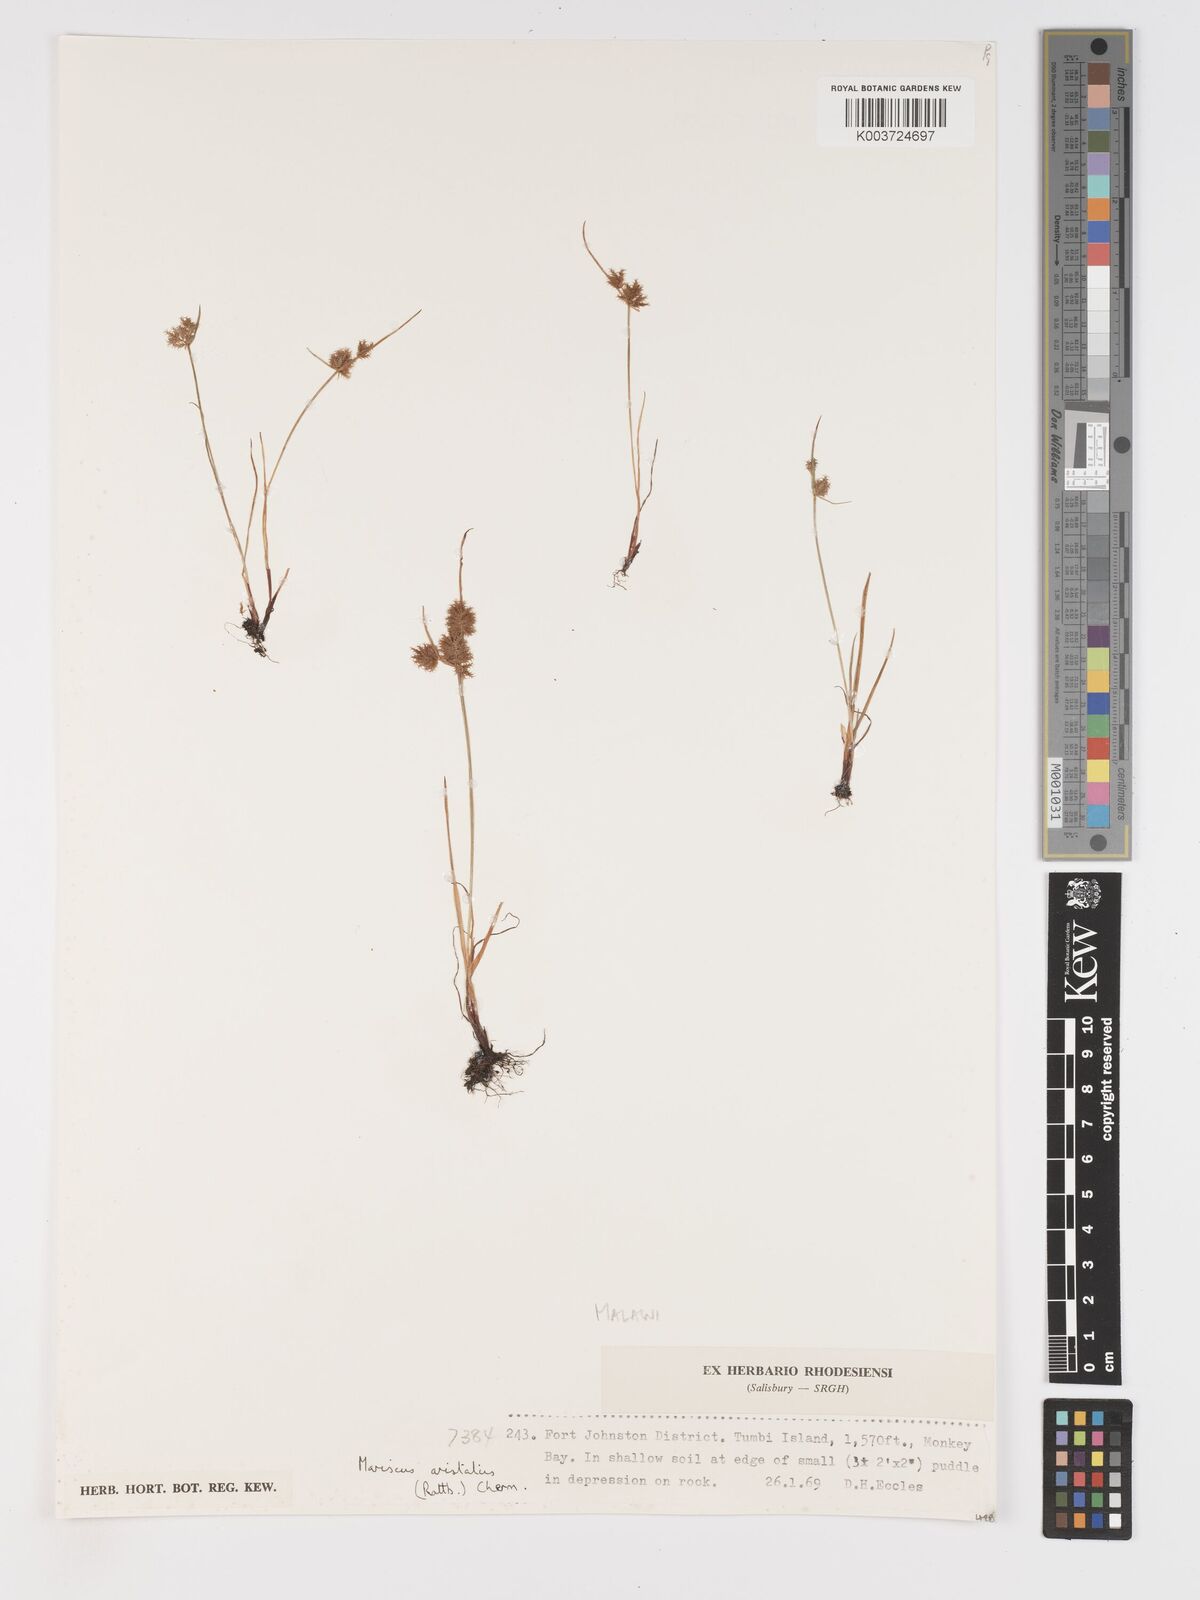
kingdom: Plantae
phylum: Tracheophyta
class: Liliopsida
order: Poales
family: Cyperaceae
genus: Cyperus
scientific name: Cyperus squarrosus
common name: Awned cyperus
